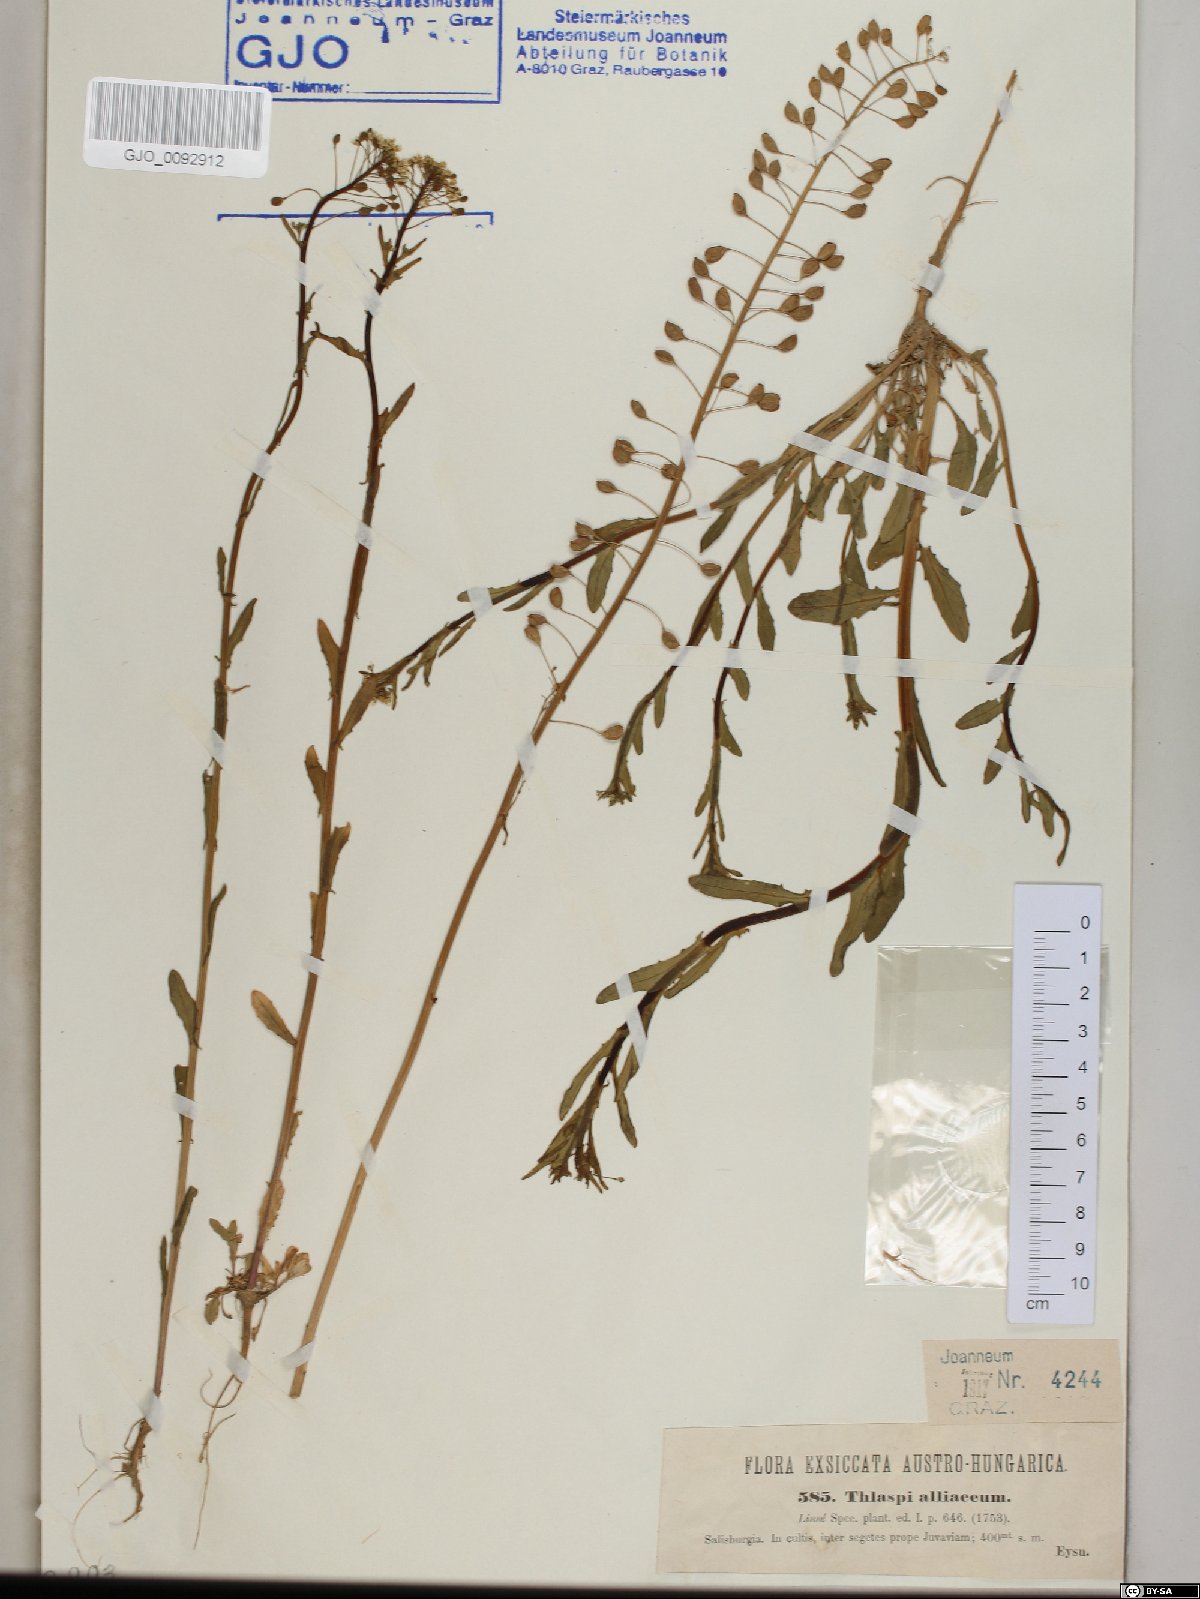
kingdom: Plantae
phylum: Tracheophyta
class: Magnoliopsida
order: Brassicales
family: Brassicaceae
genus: Mummenhoffia
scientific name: Mummenhoffia alliacea
